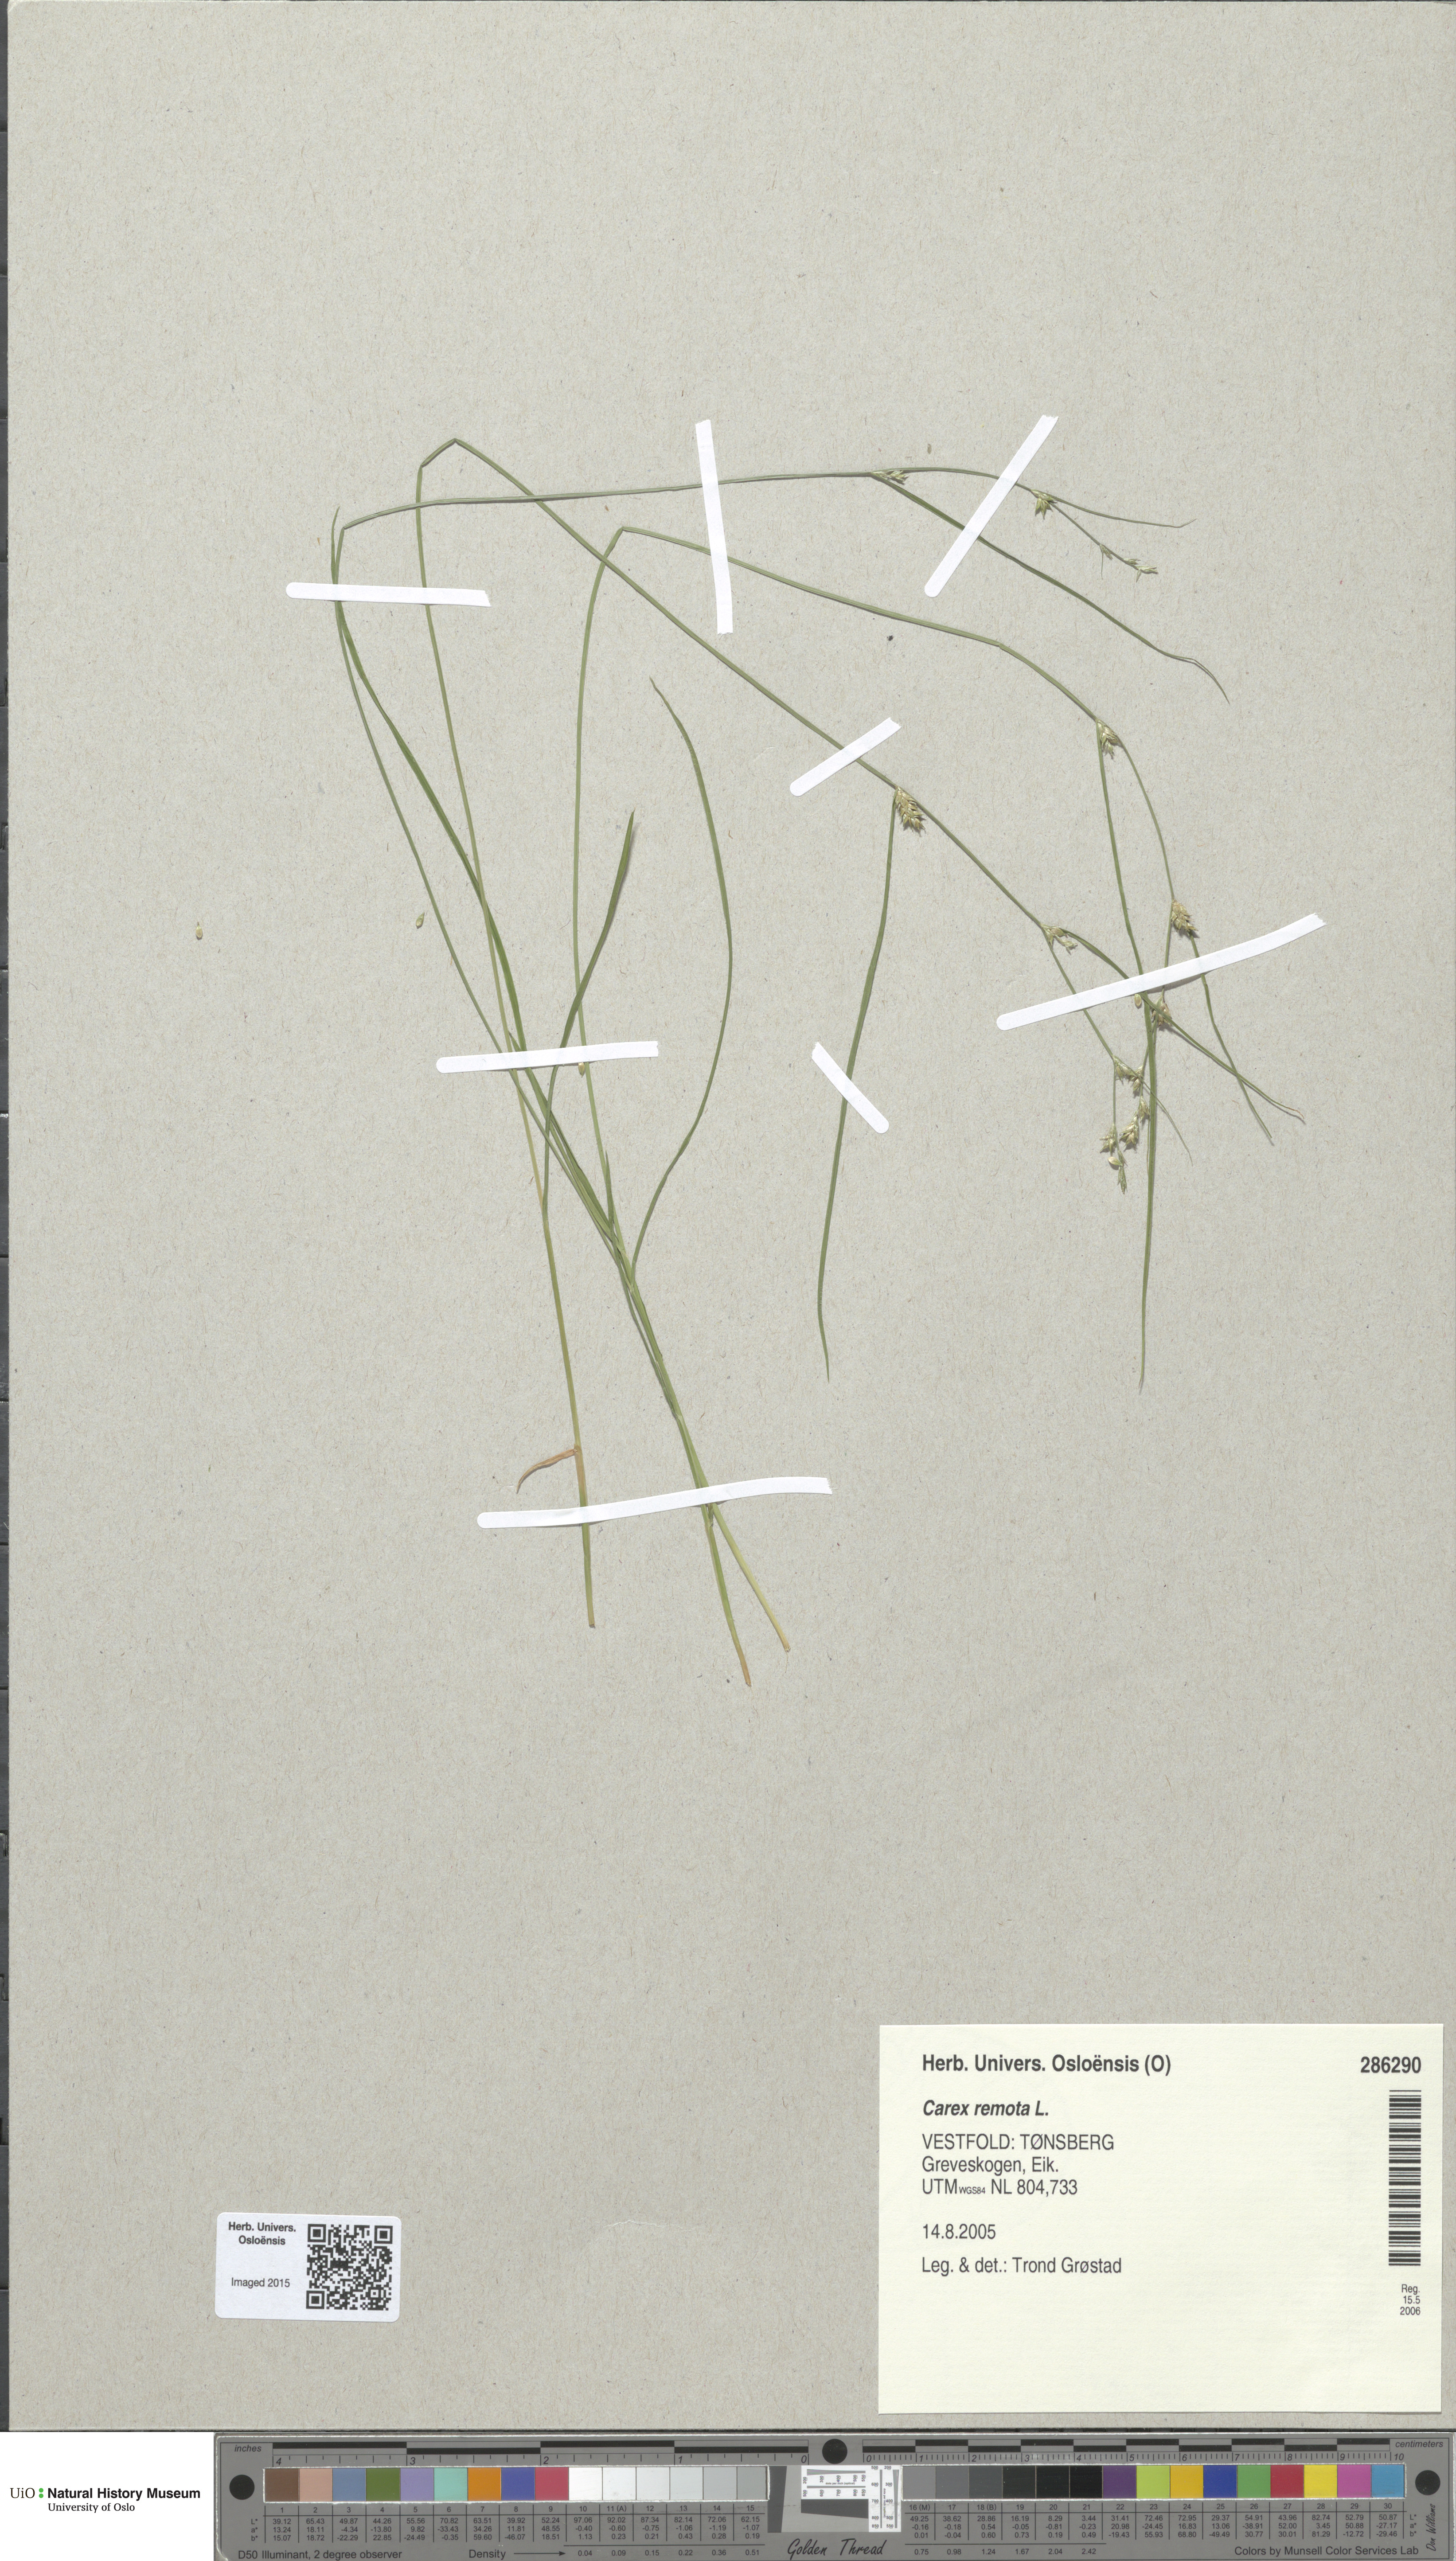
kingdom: Plantae
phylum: Tracheophyta
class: Liliopsida
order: Poales
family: Cyperaceae
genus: Carex
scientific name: Carex remota
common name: Remote sedge
